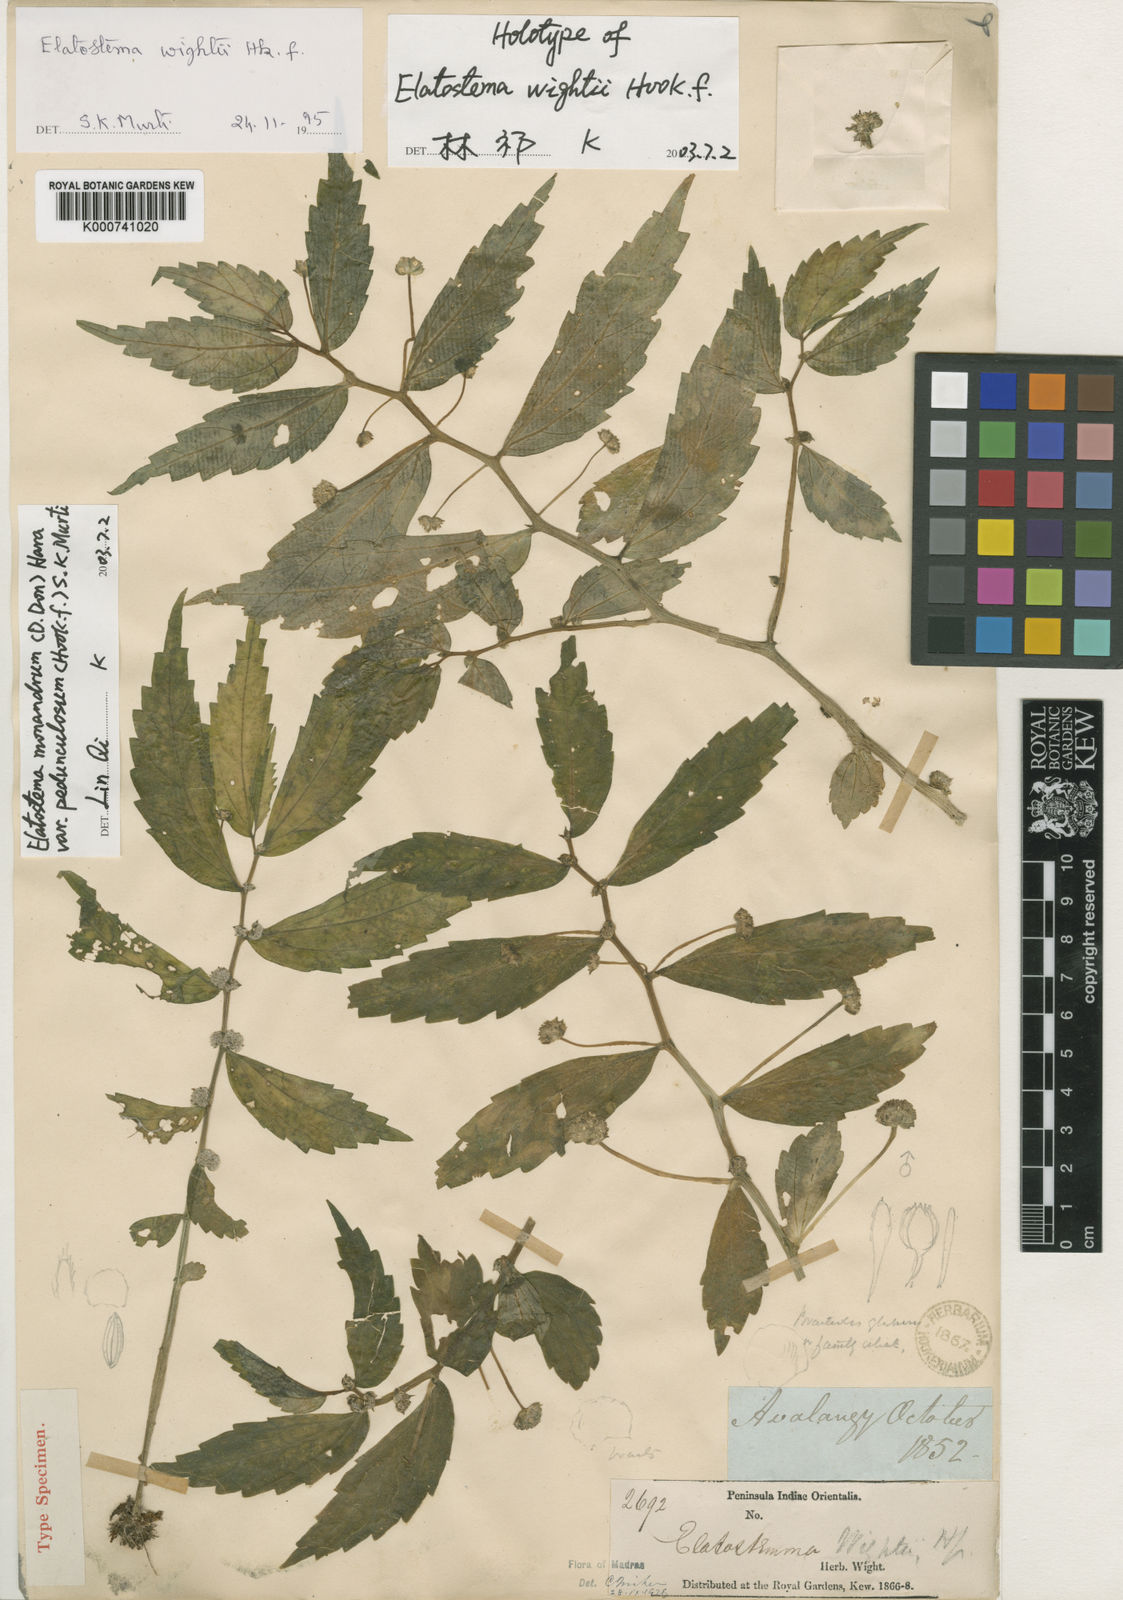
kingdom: Plantae
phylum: Tracheophyta
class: Magnoliopsida
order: Rosales
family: Urticaceae
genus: Elatostema
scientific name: Elatostema monandrum
